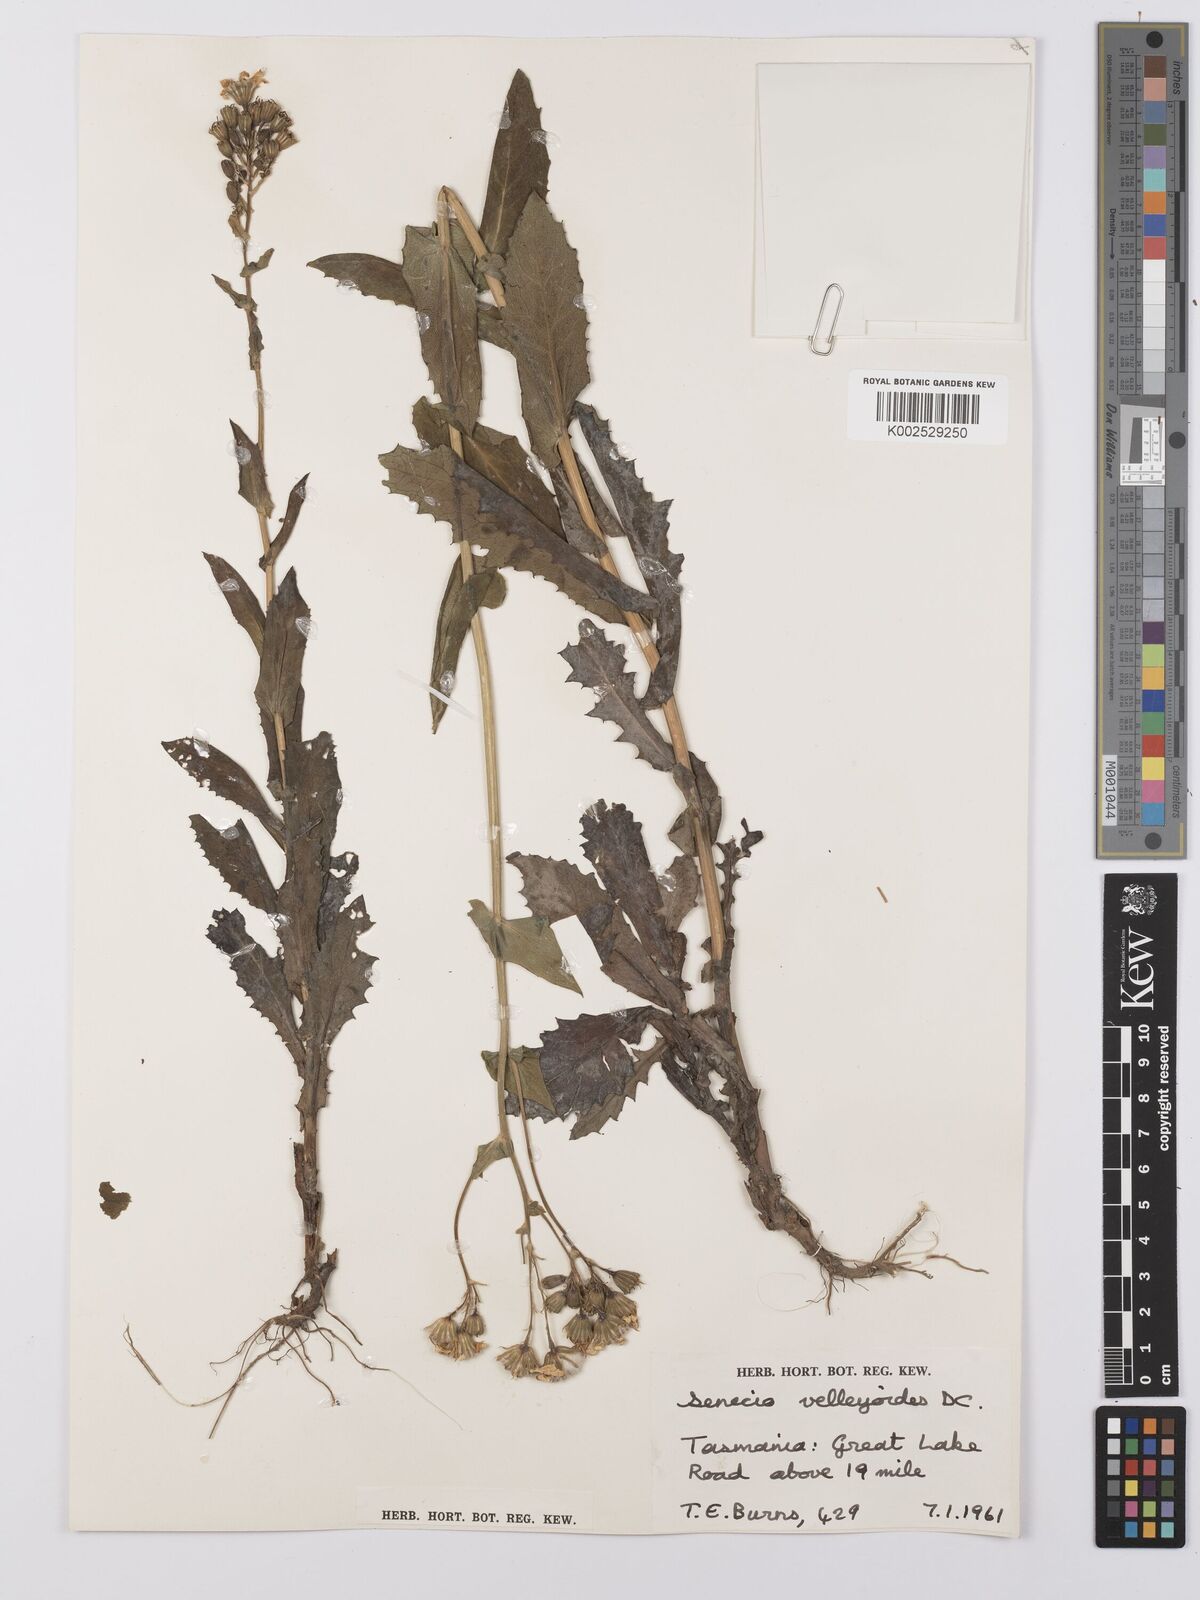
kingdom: Plantae
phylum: Tracheophyta
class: Magnoliopsida
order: Asterales
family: Asteraceae
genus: Lordhowea
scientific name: Lordhowea velleioides
